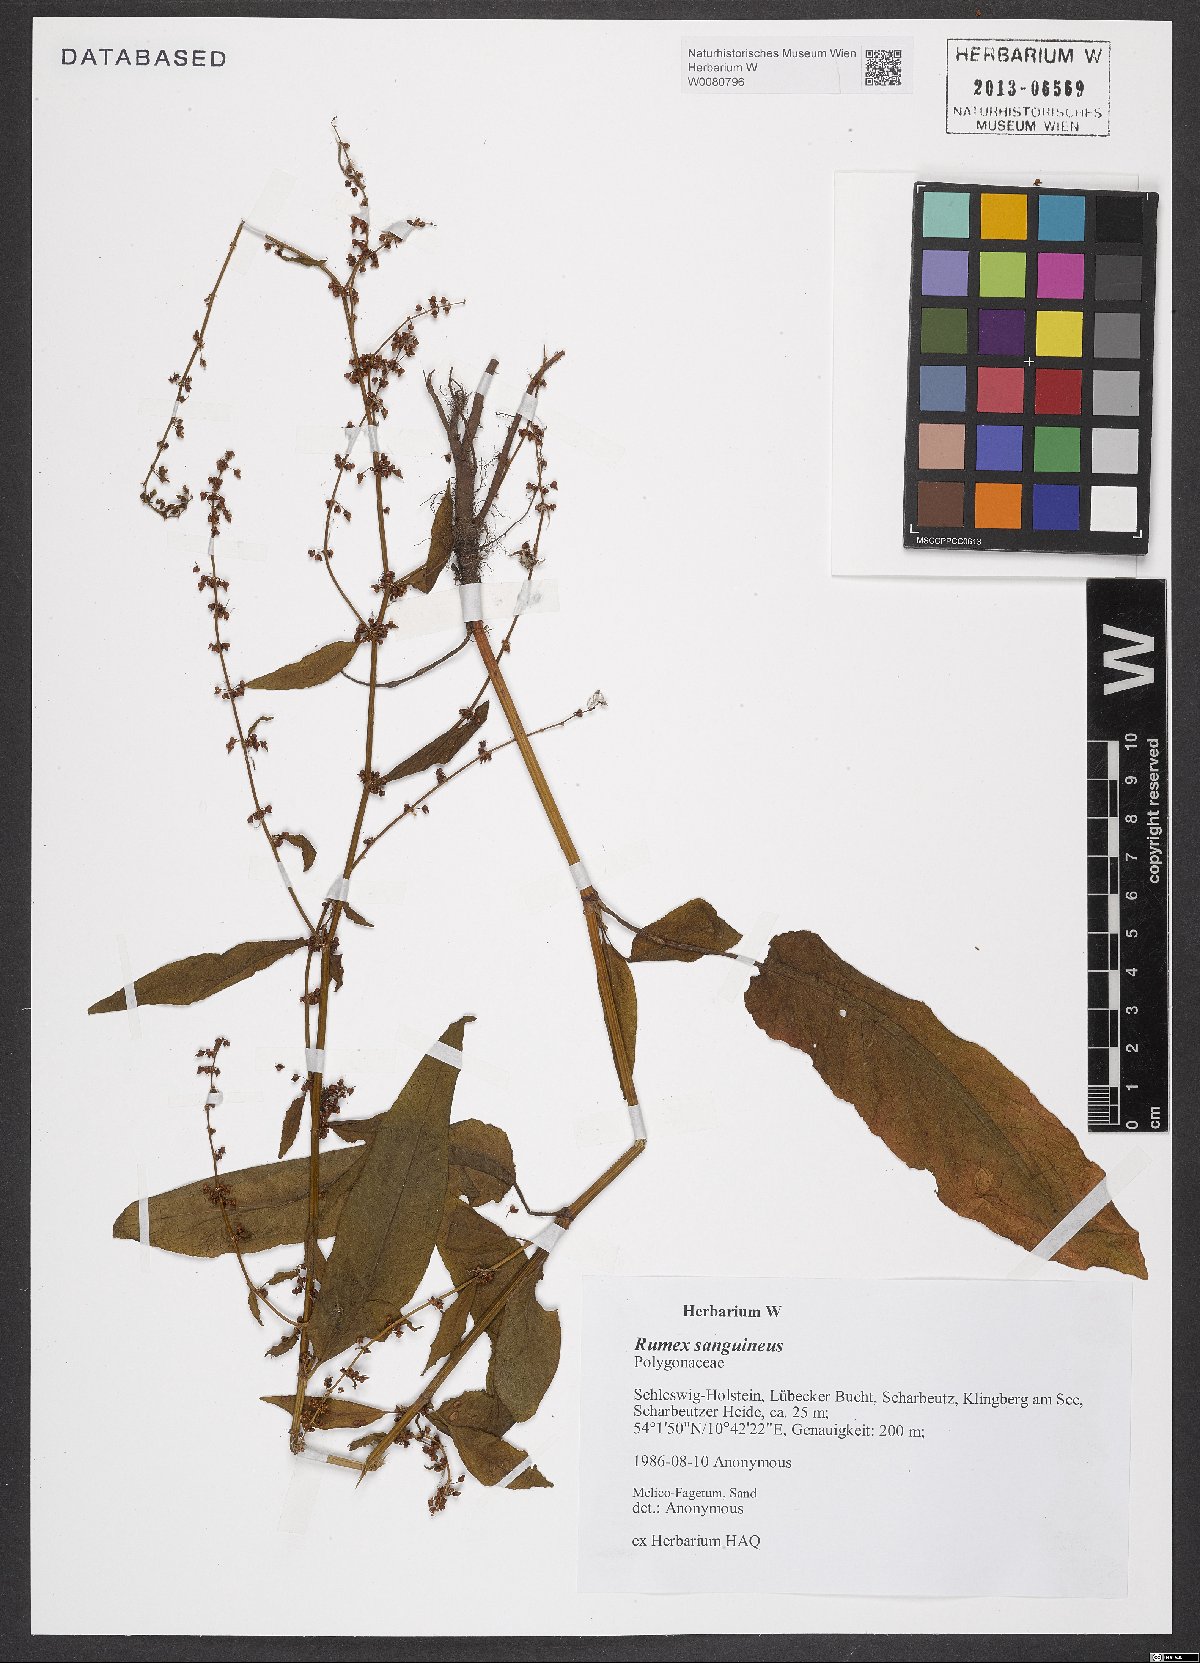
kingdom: Plantae
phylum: Tracheophyta
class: Magnoliopsida
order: Caryophyllales
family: Polygonaceae
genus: Rumex
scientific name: Rumex sanguineus
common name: Wood dock
